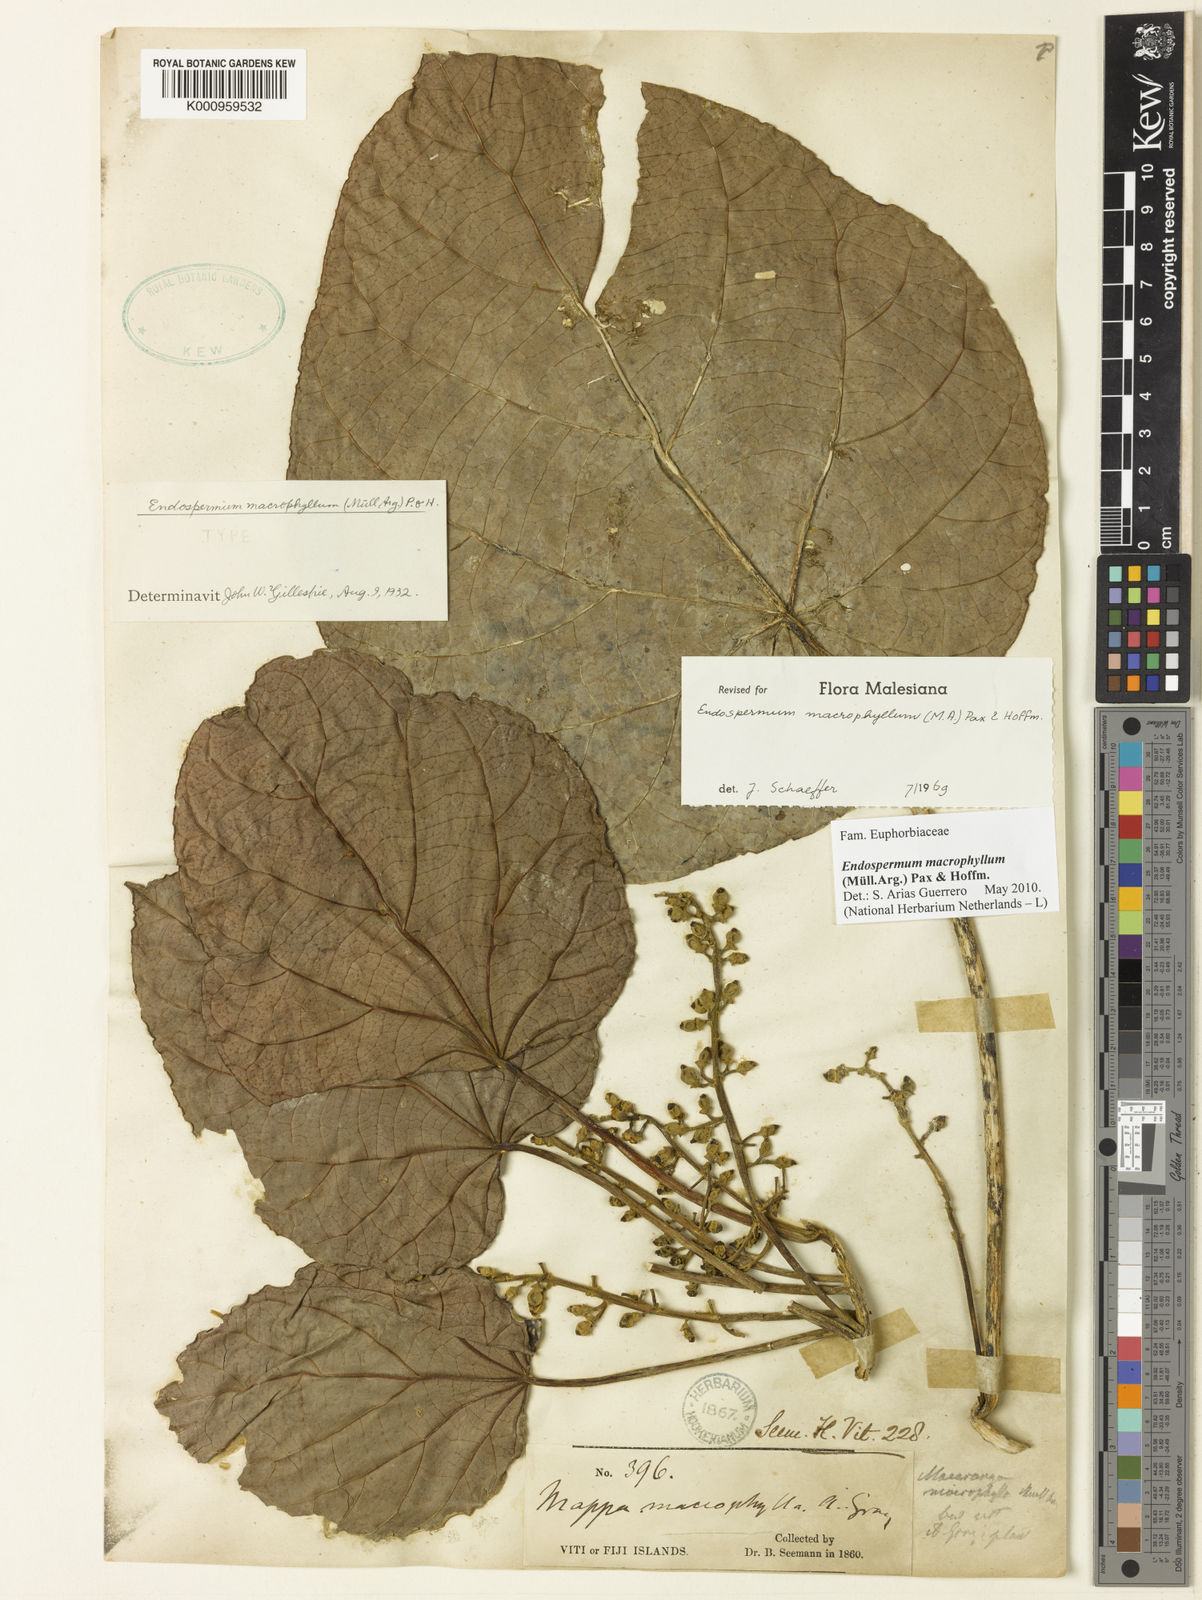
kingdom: Plantae
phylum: Tracheophyta
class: Magnoliopsida
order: Malpighiales
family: Euphorbiaceae
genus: Endospermum
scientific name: Endospermum
